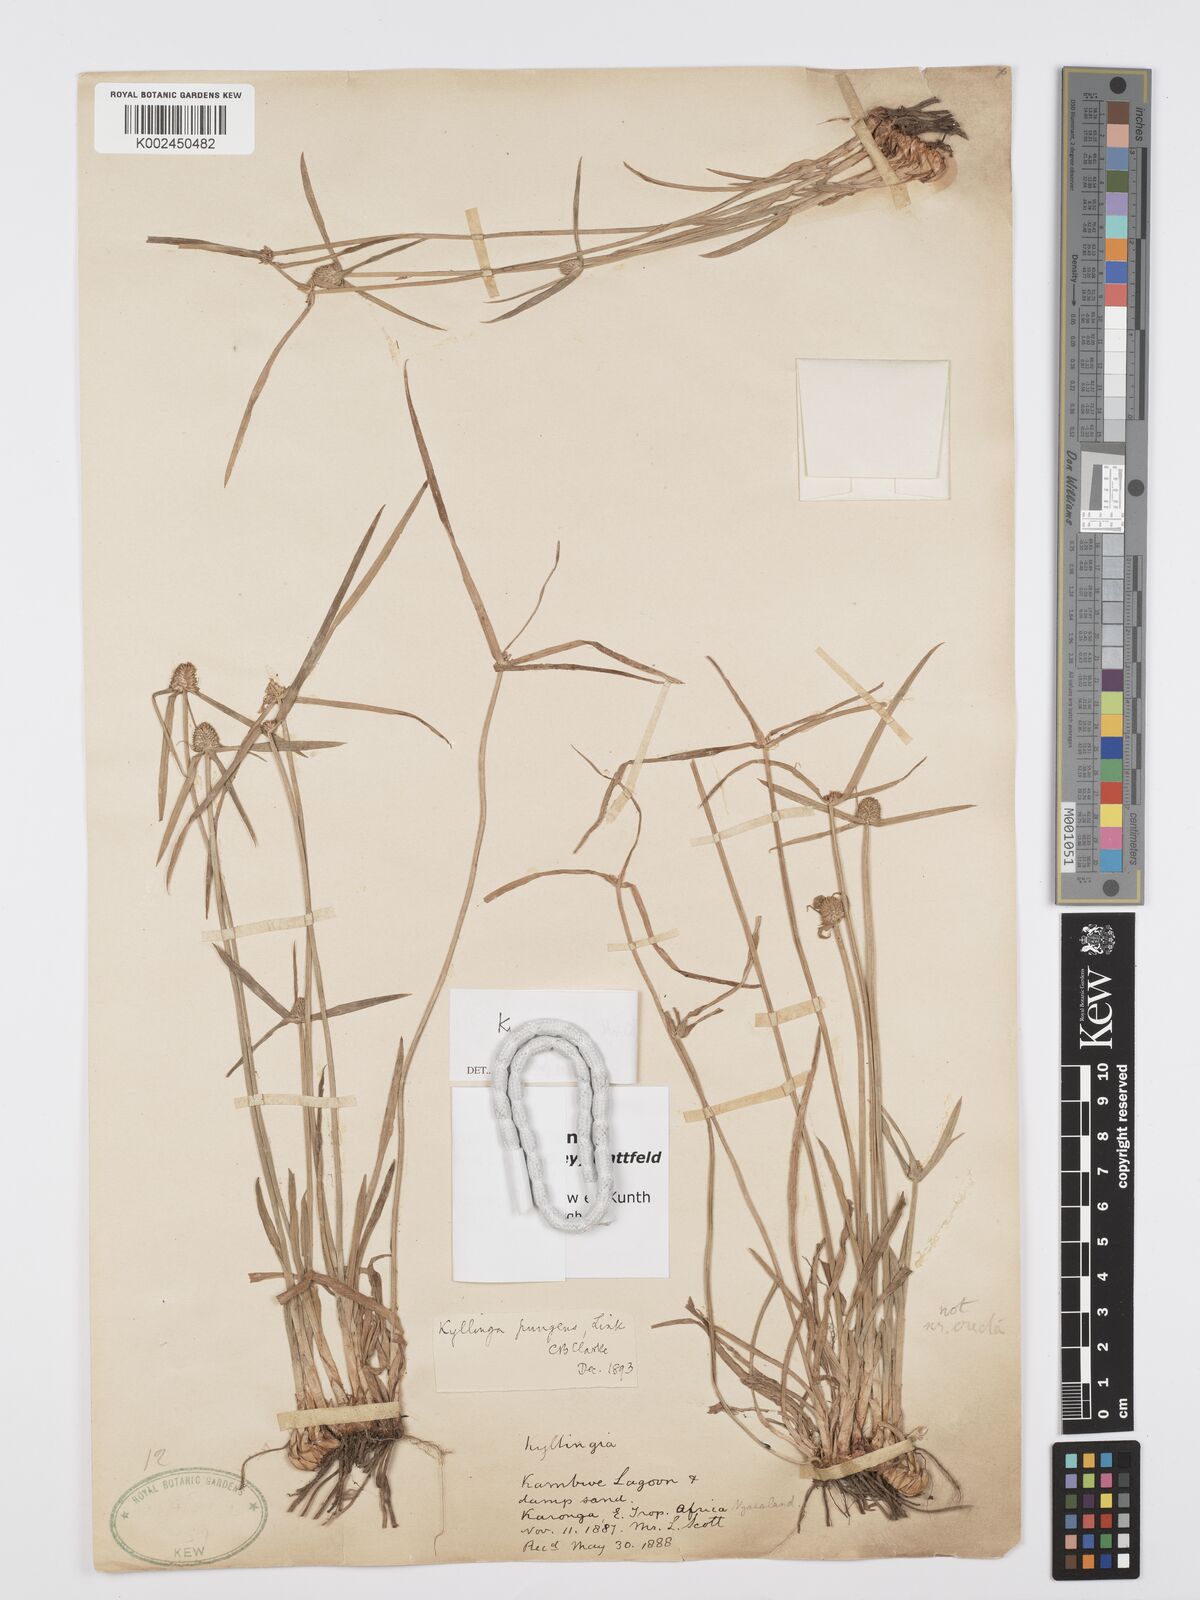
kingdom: Plantae
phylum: Tracheophyta
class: Liliopsida
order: Poales
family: Cyperaceae
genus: Cyperus
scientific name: Cyperus bulbosus
